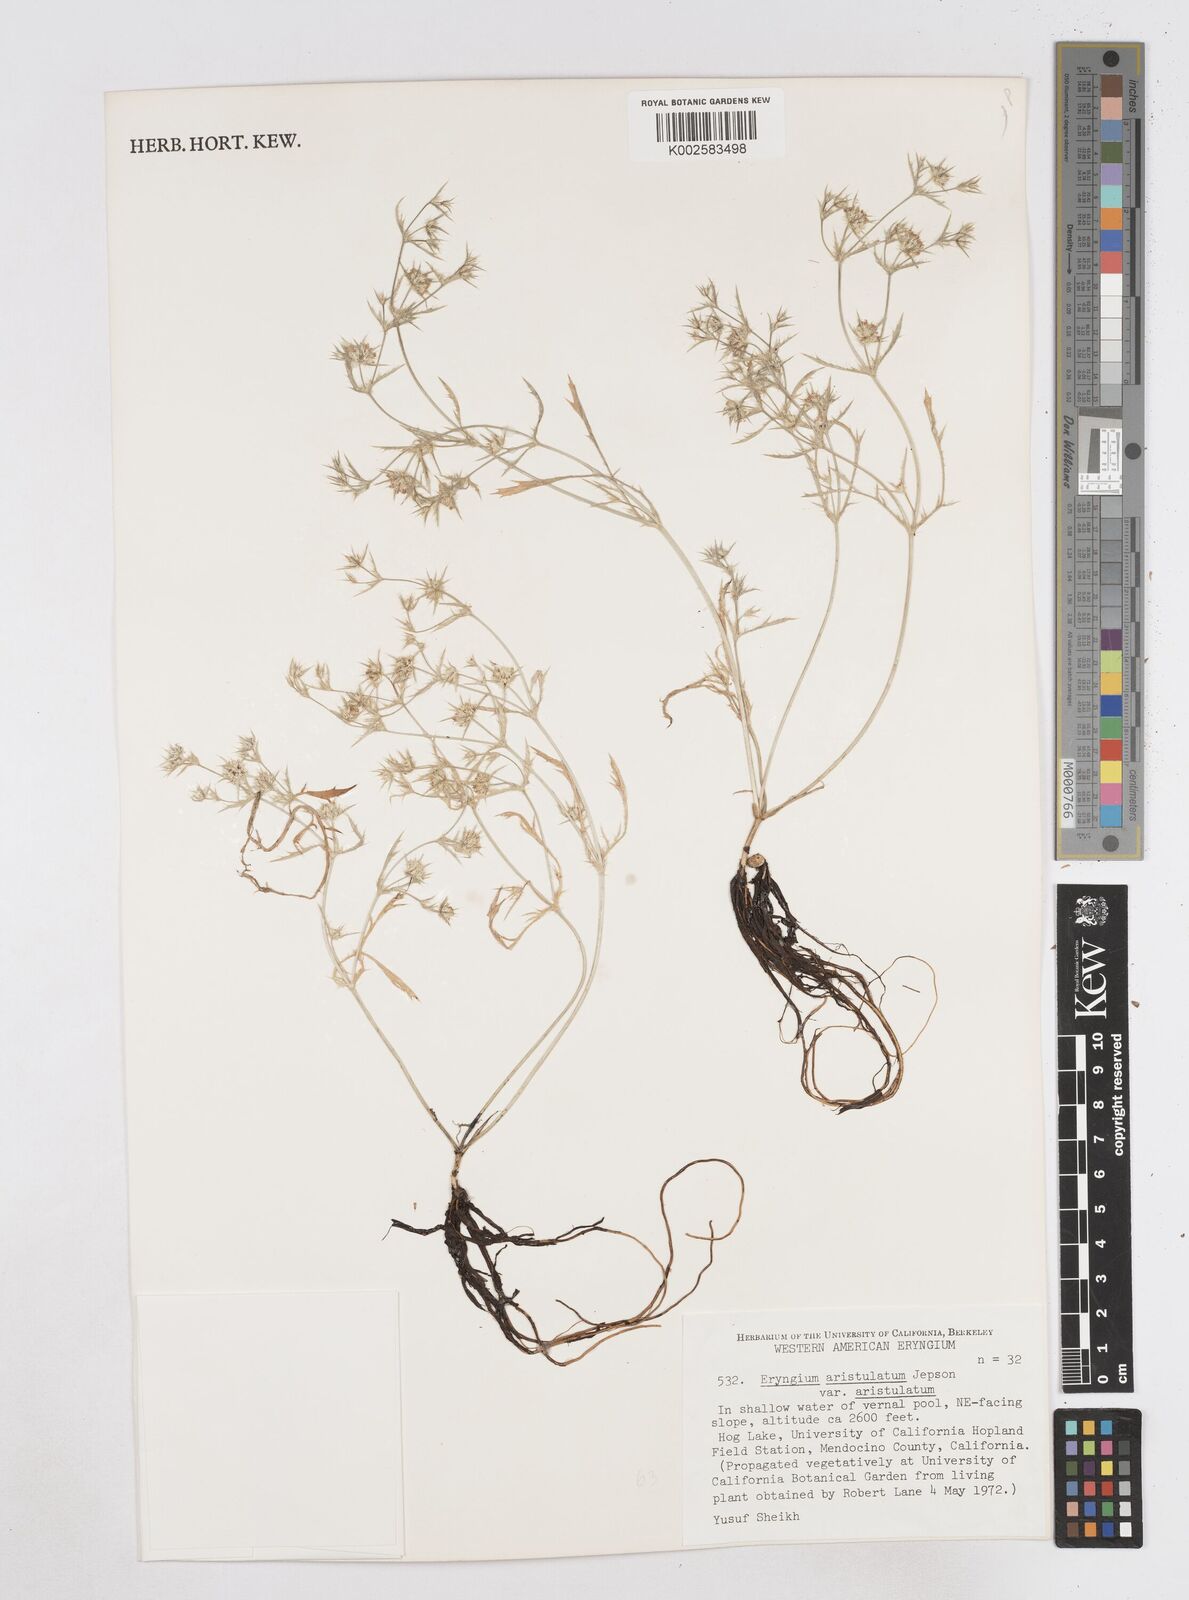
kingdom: Plantae
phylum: Tracheophyta
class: Magnoliopsida
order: Apiales
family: Apiaceae
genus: Eryngium
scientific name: Eryngium aristulatum
